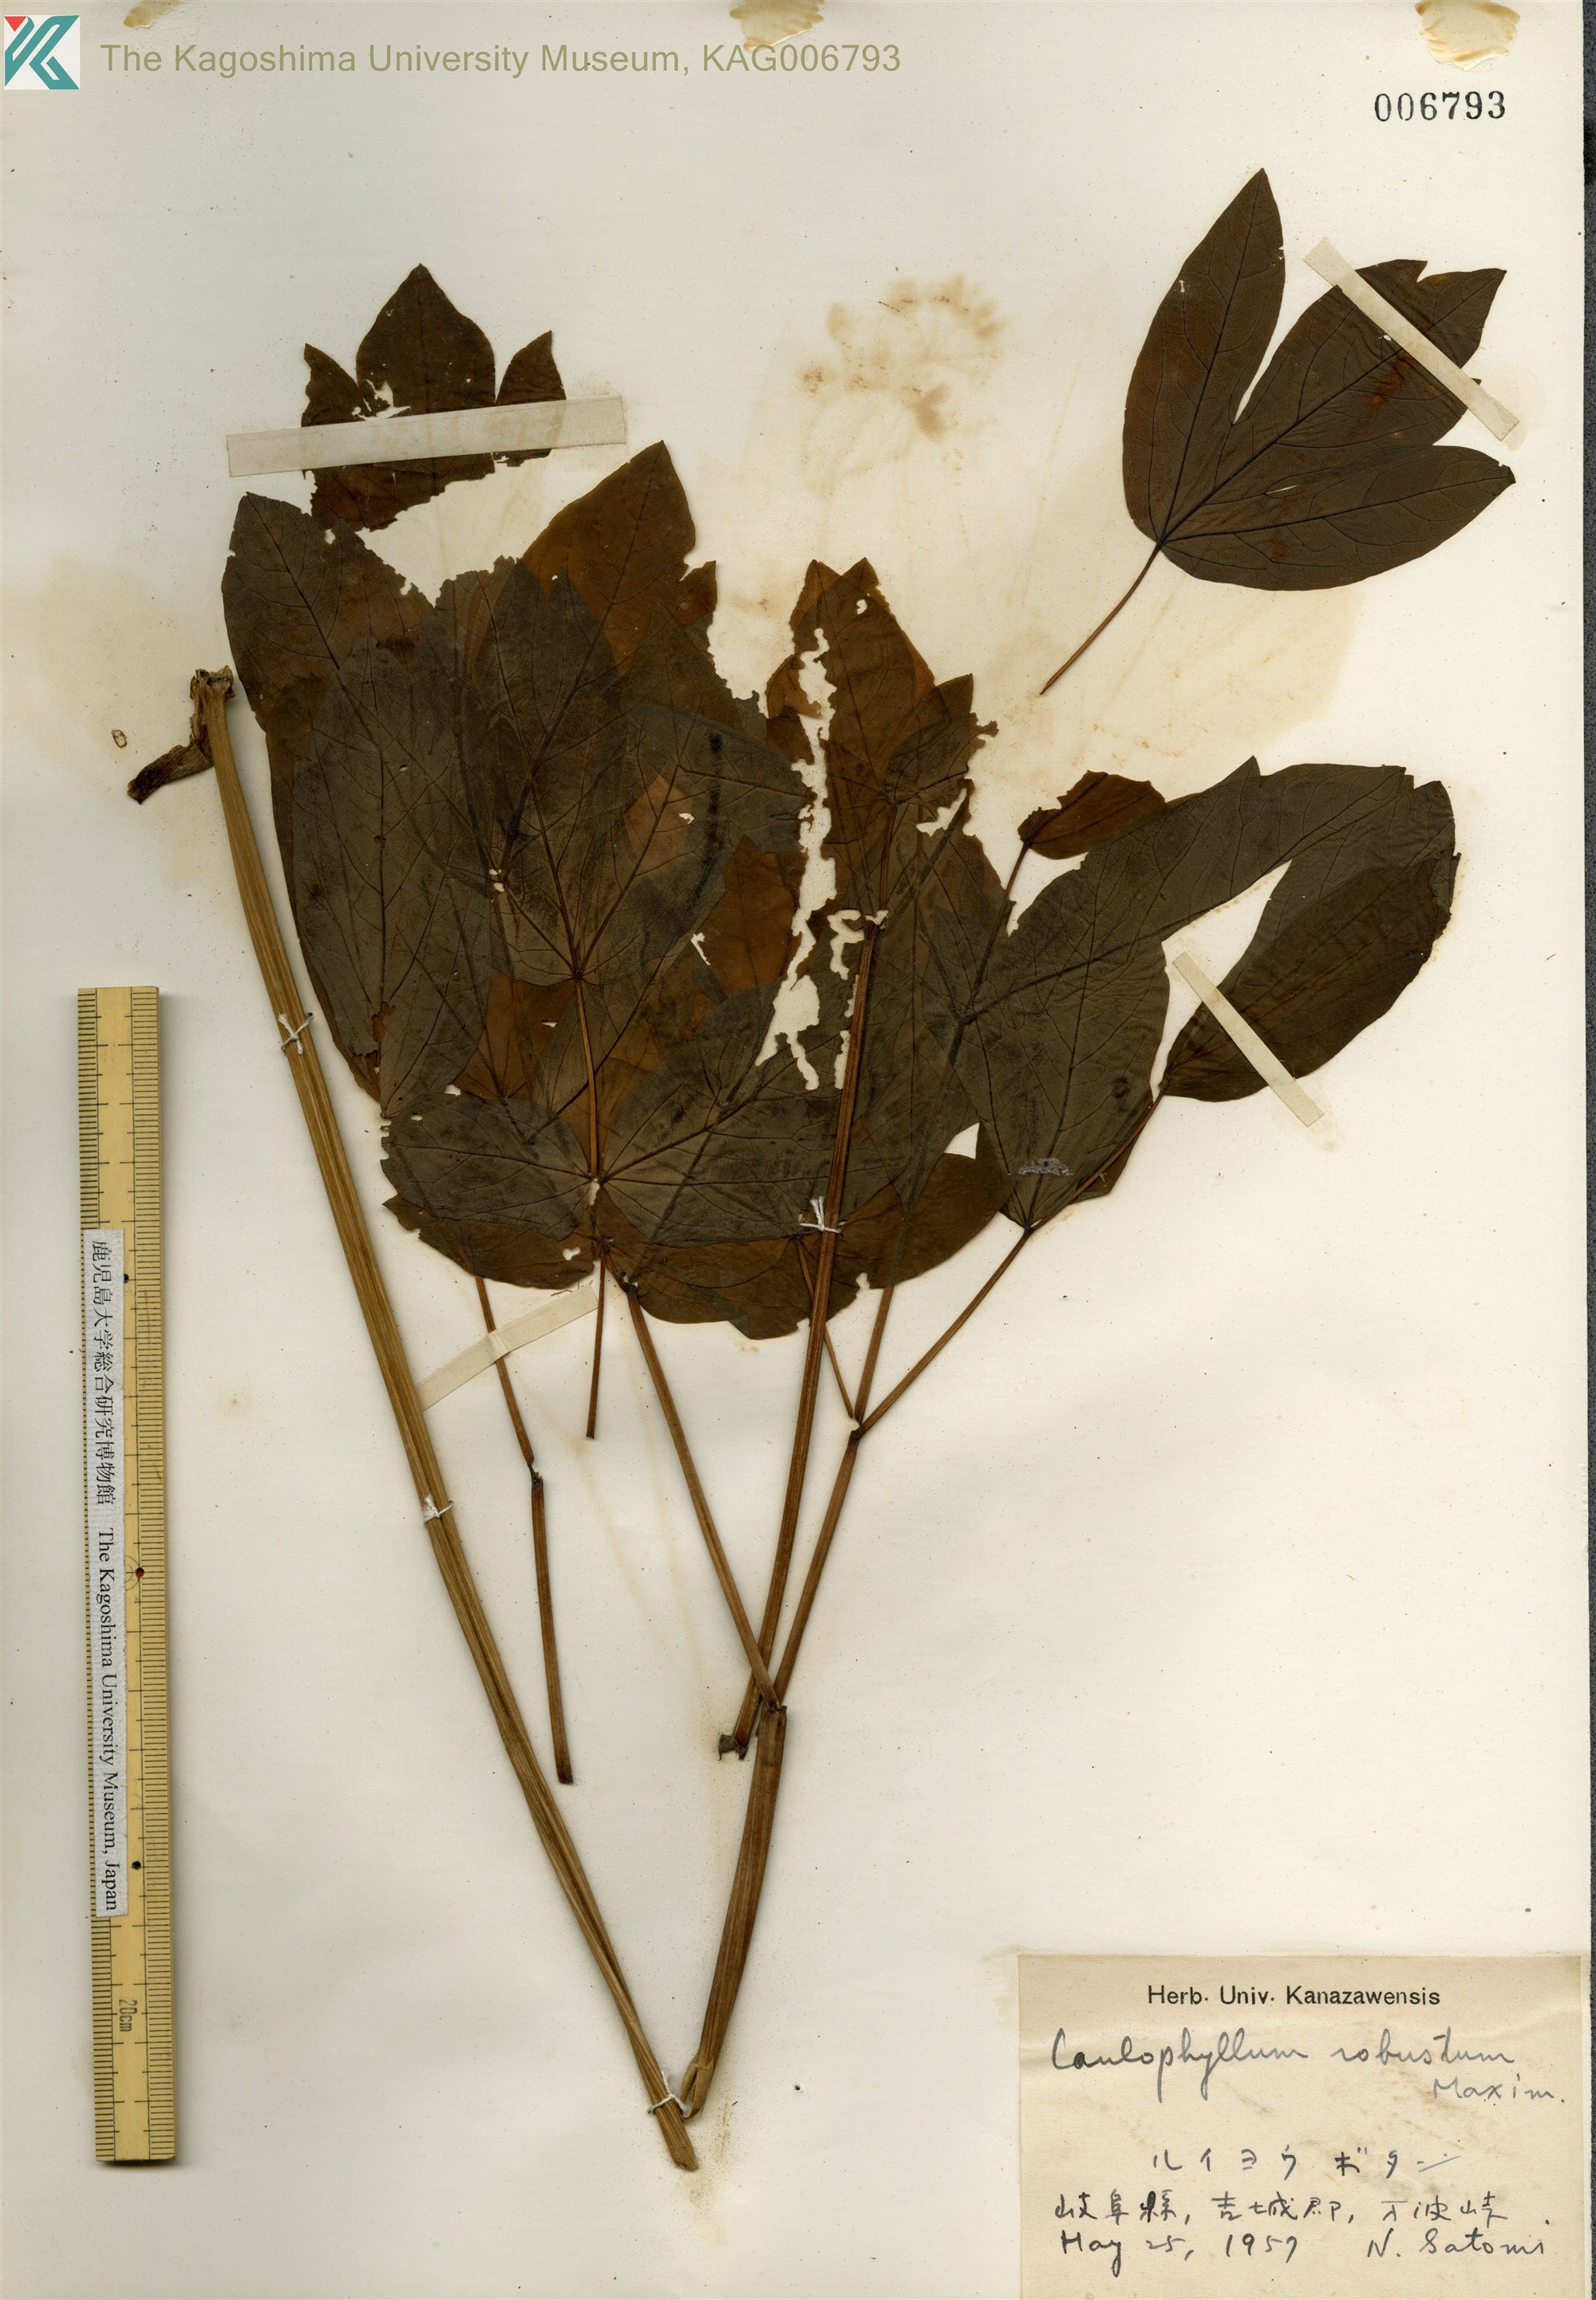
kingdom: Plantae
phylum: Tracheophyta
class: Magnoliopsida
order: Ranunculales
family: Berberidaceae
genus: Caulophyllum
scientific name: Caulophyllum robustum
